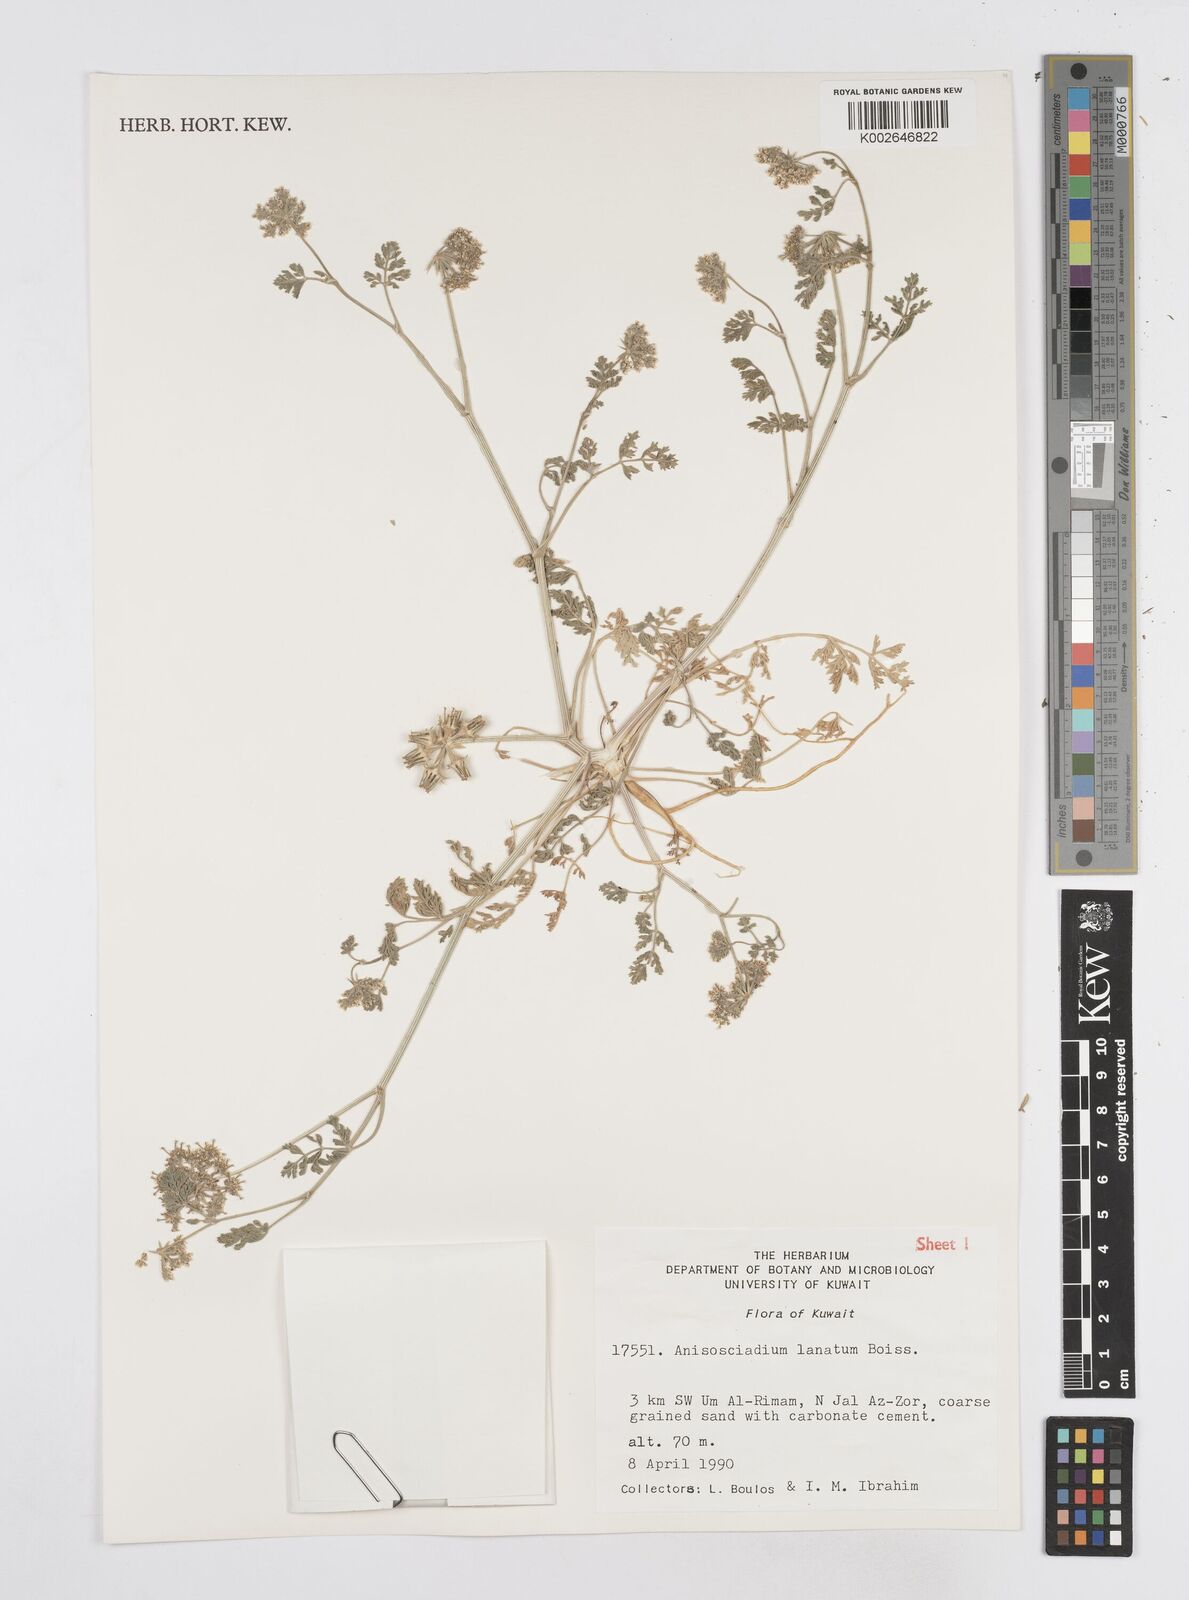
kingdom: Plantae
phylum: Tracheophyta
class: Magnoliopsida
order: Apiales
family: Apiaceae
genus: Anisosciadium
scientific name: Anisosciadium isosciadium
